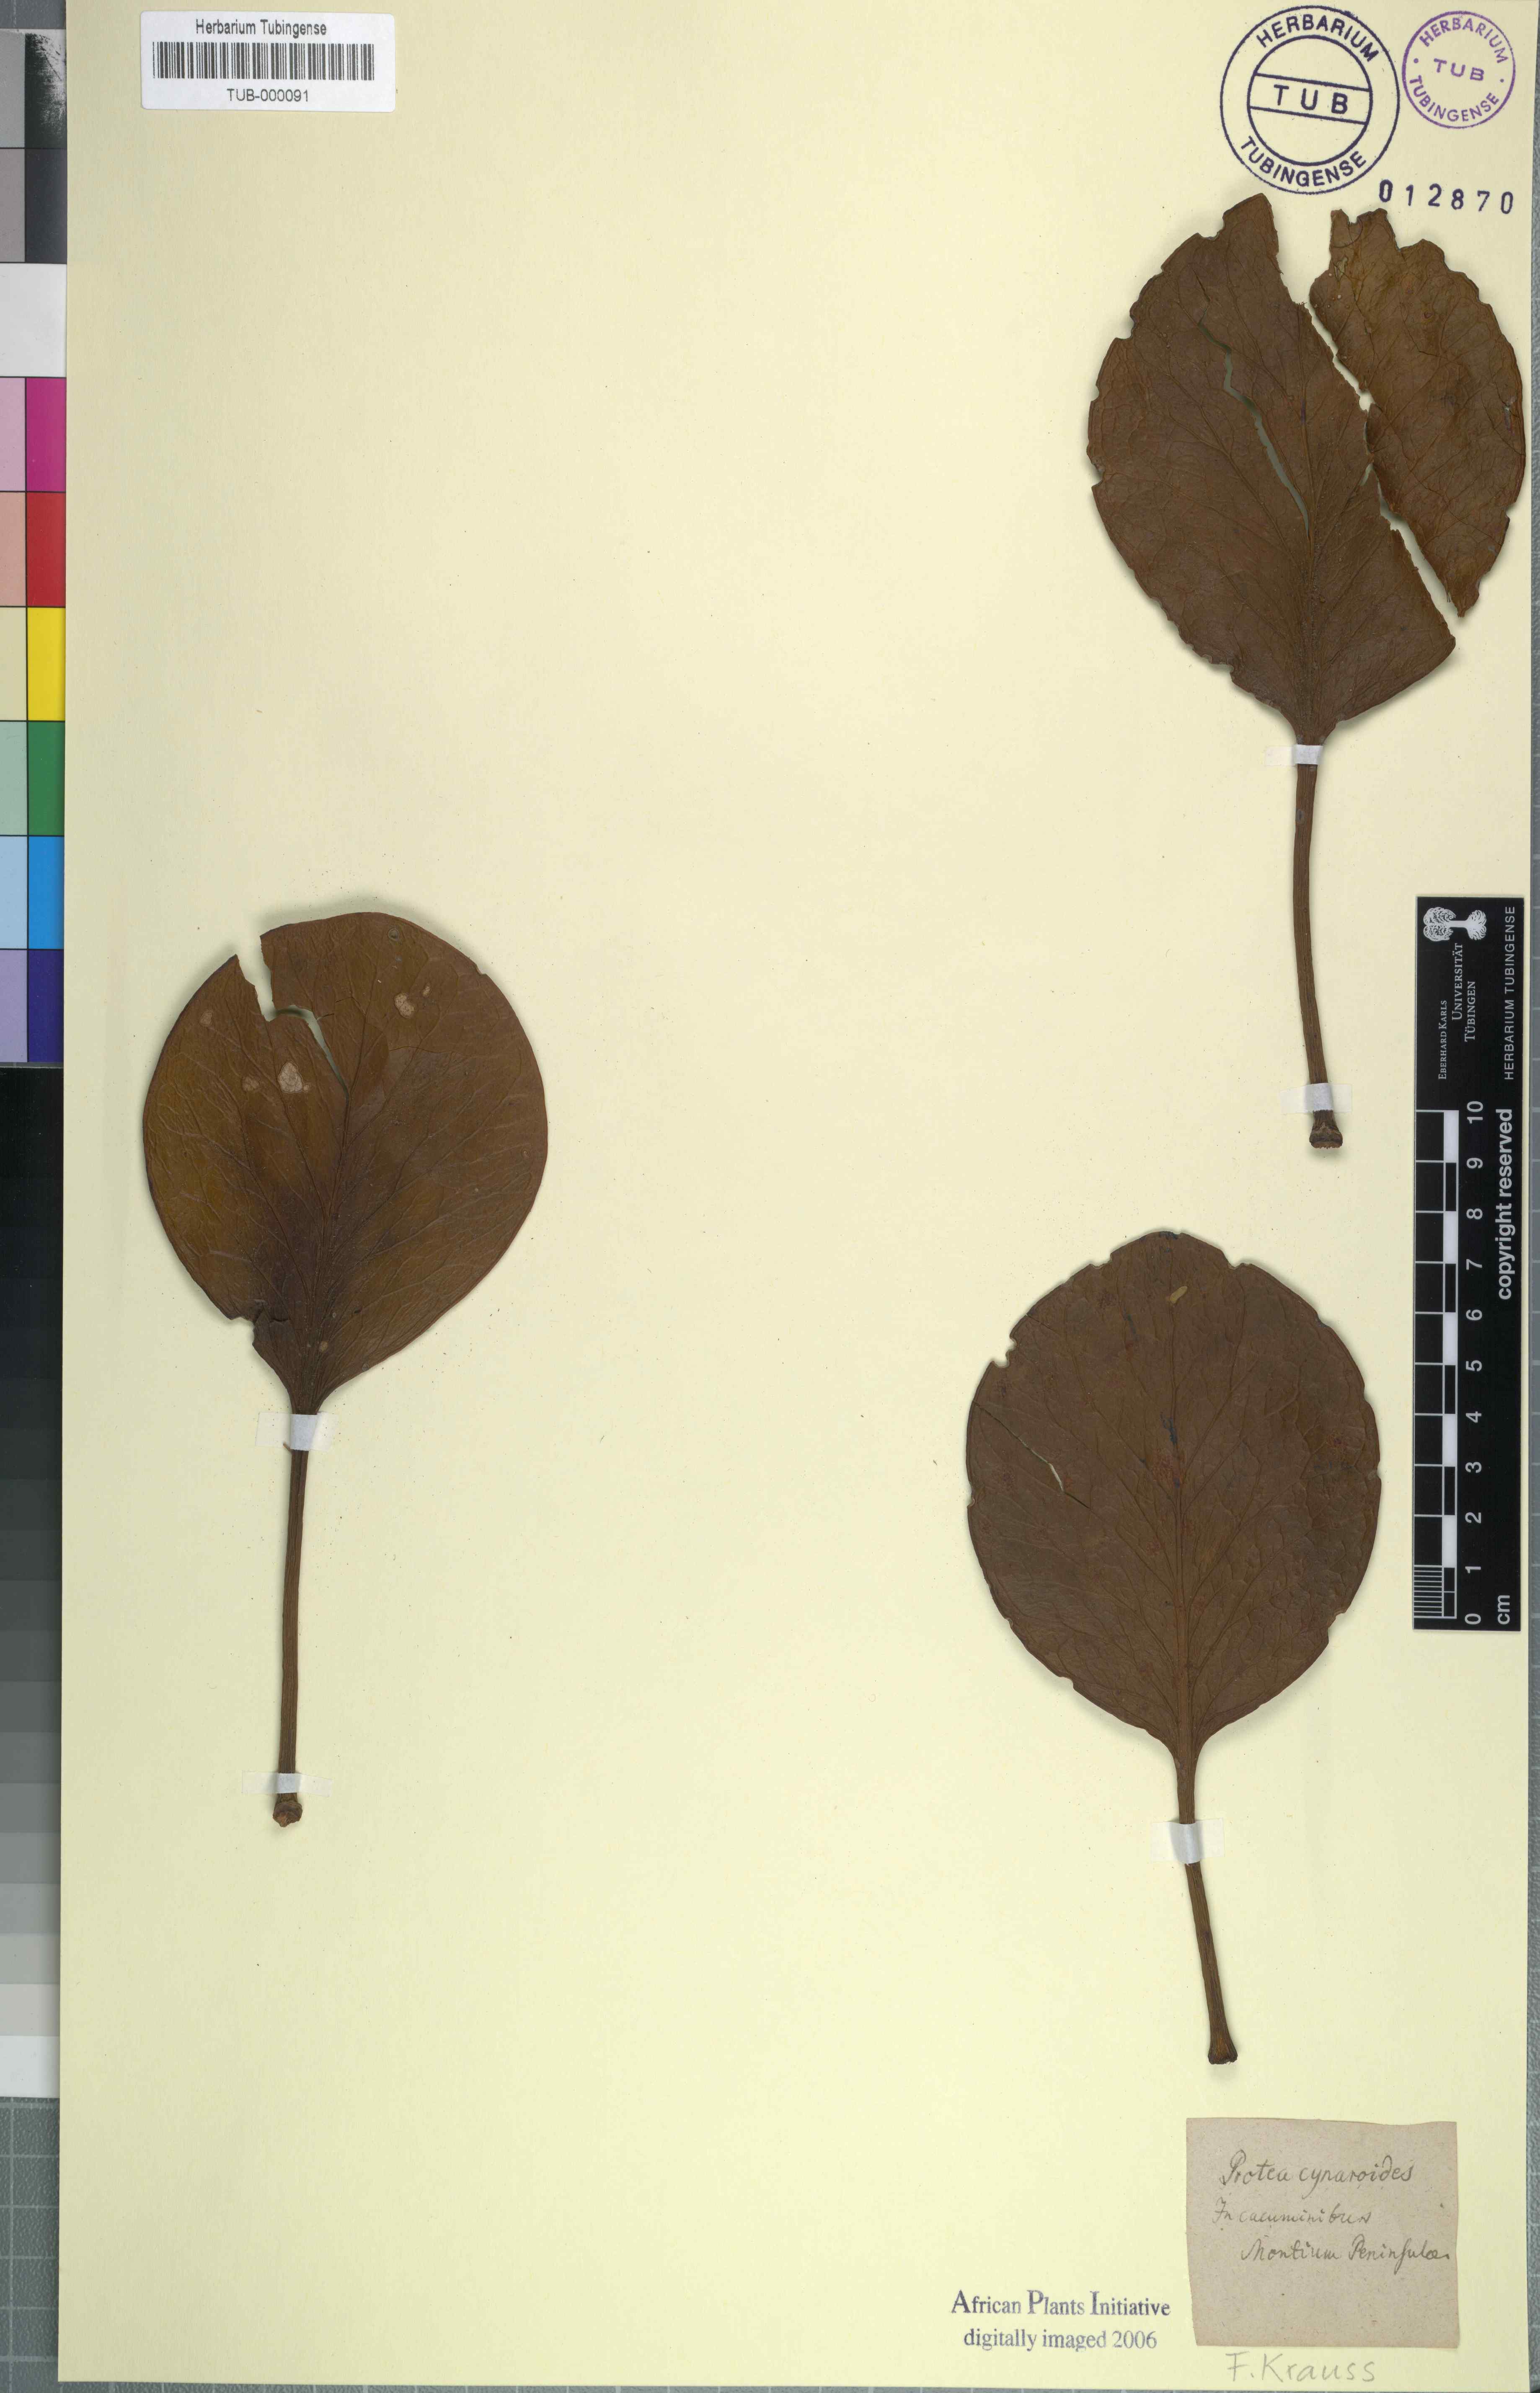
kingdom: Plantae
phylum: Tracheophyta
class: Magnoliopsida
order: Proteales
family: Proteaceae
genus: Protea
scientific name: Protea cynaroides
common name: King protea
